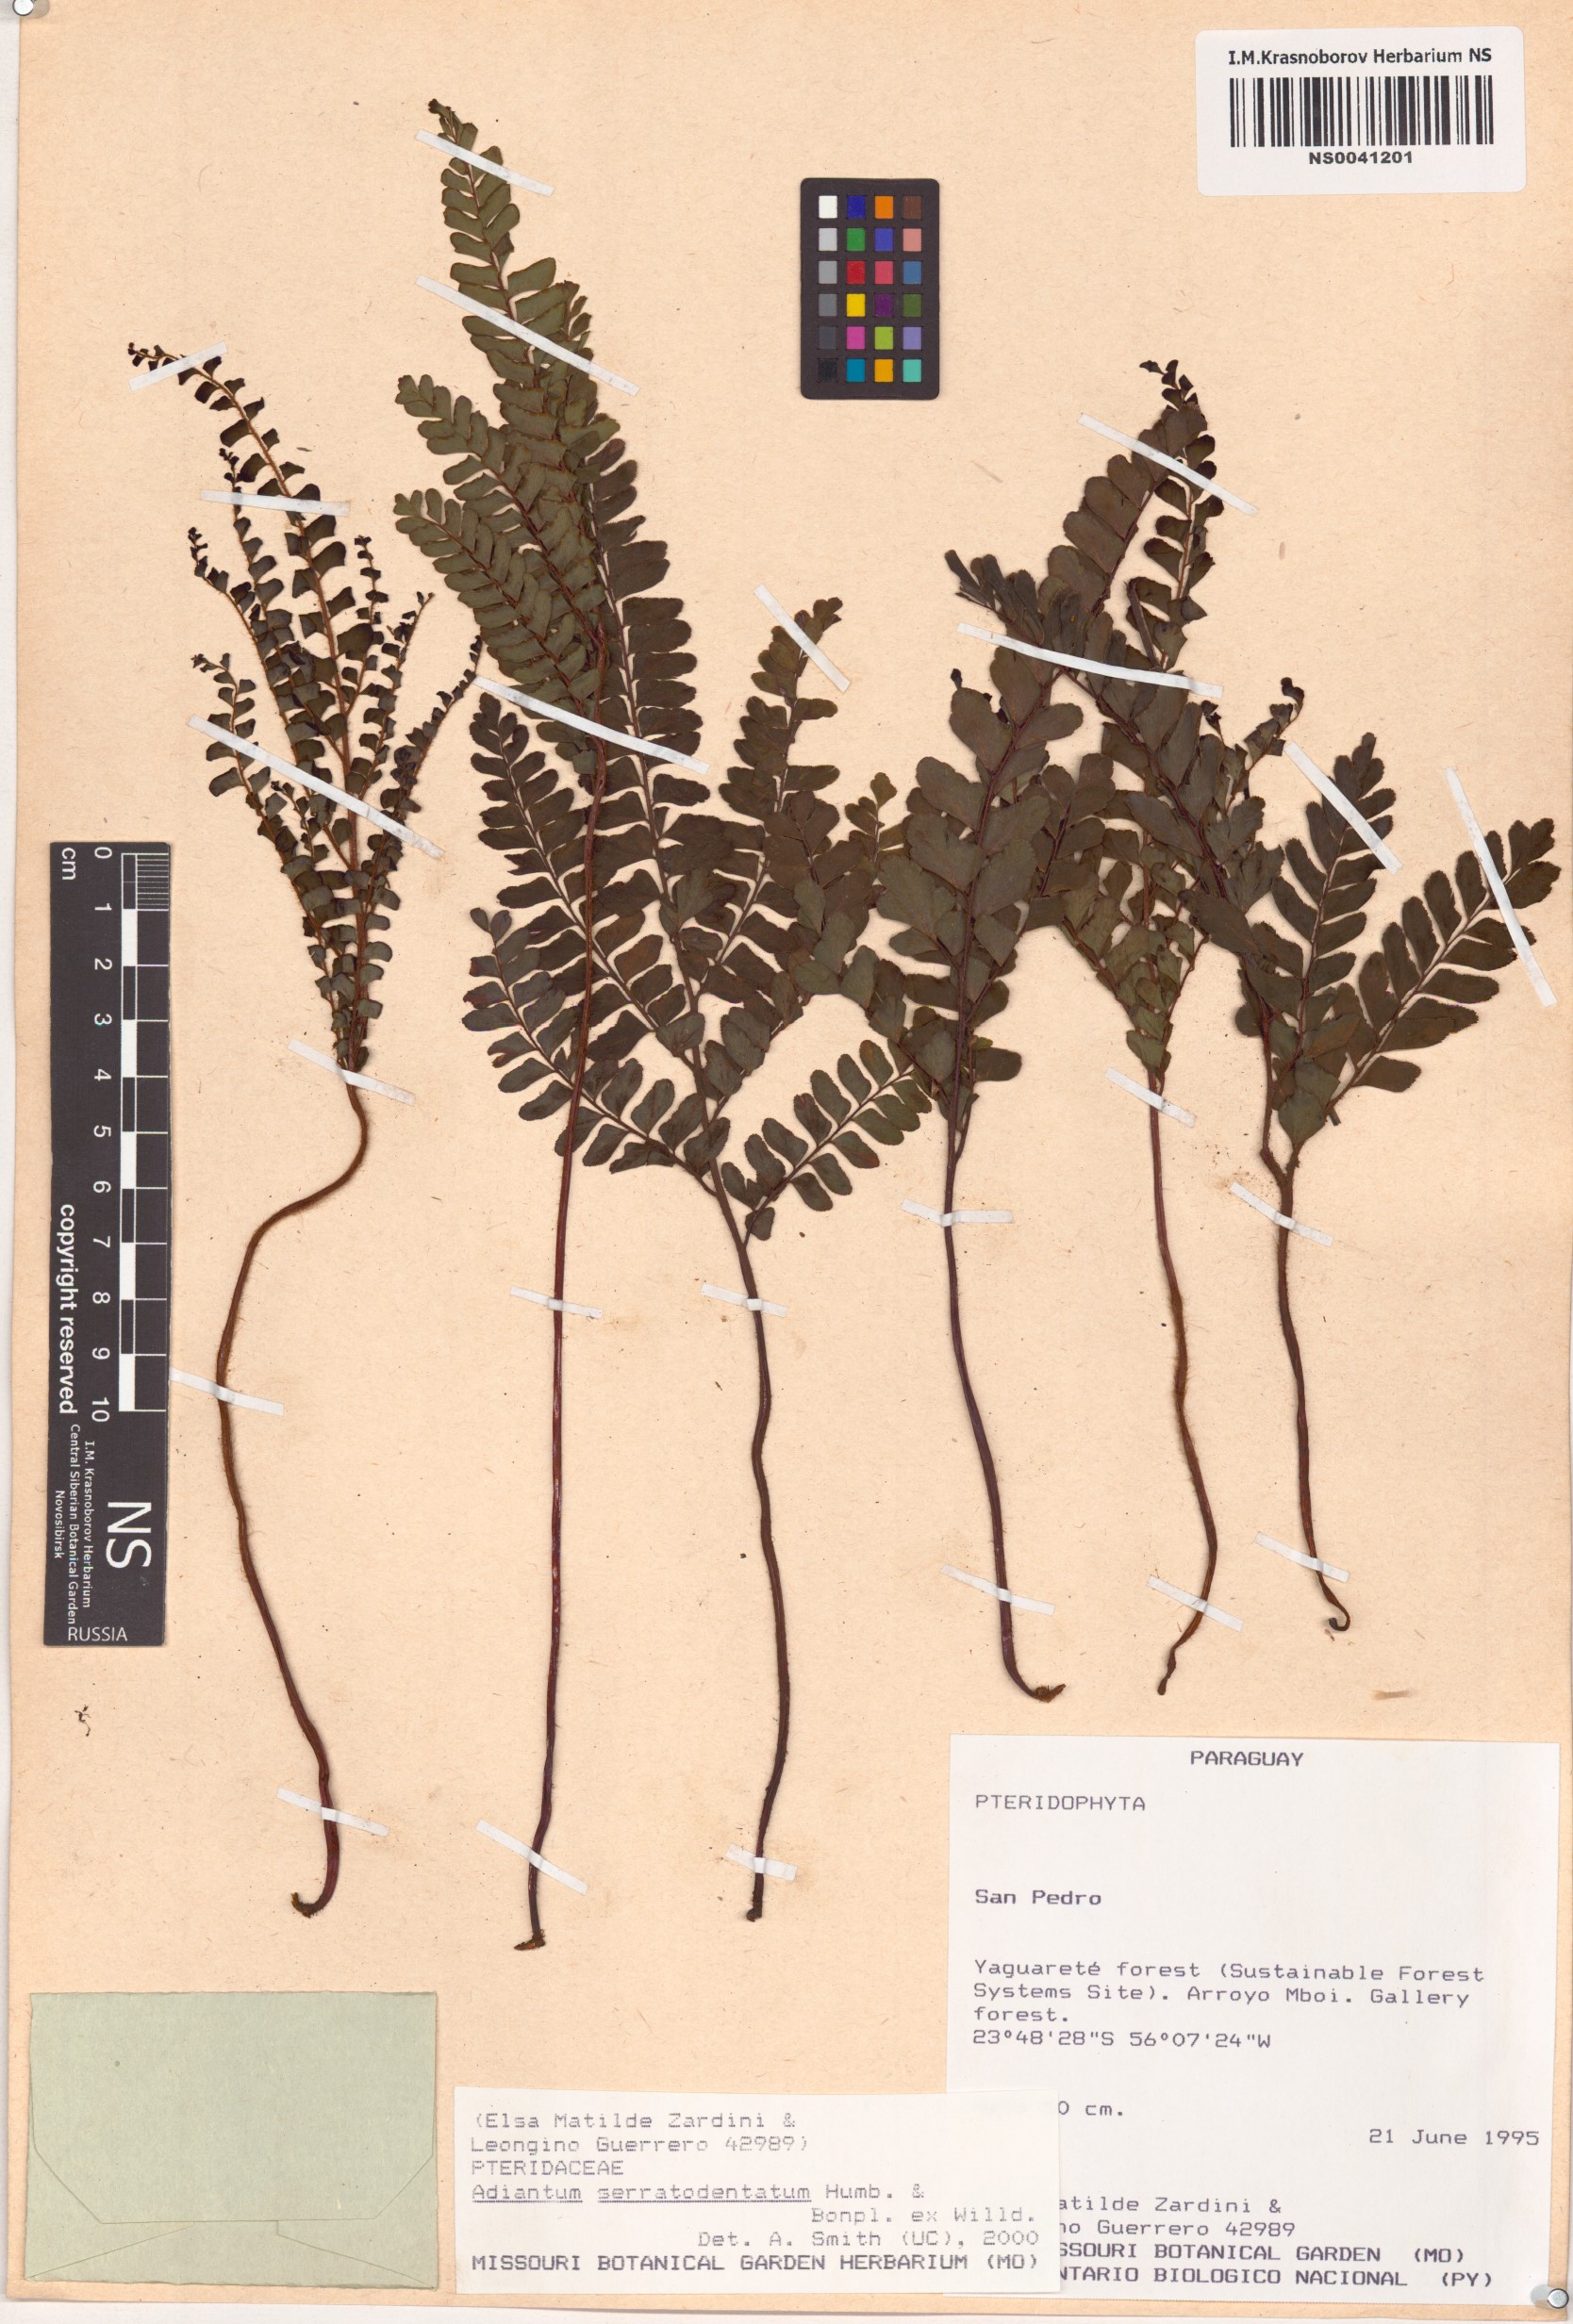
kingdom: Plantae
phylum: Tracheophyta
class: Polypodiopsida
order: Polypodiales
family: Pteridaceae
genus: Adiantum
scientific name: Adiantum serratodentatum
